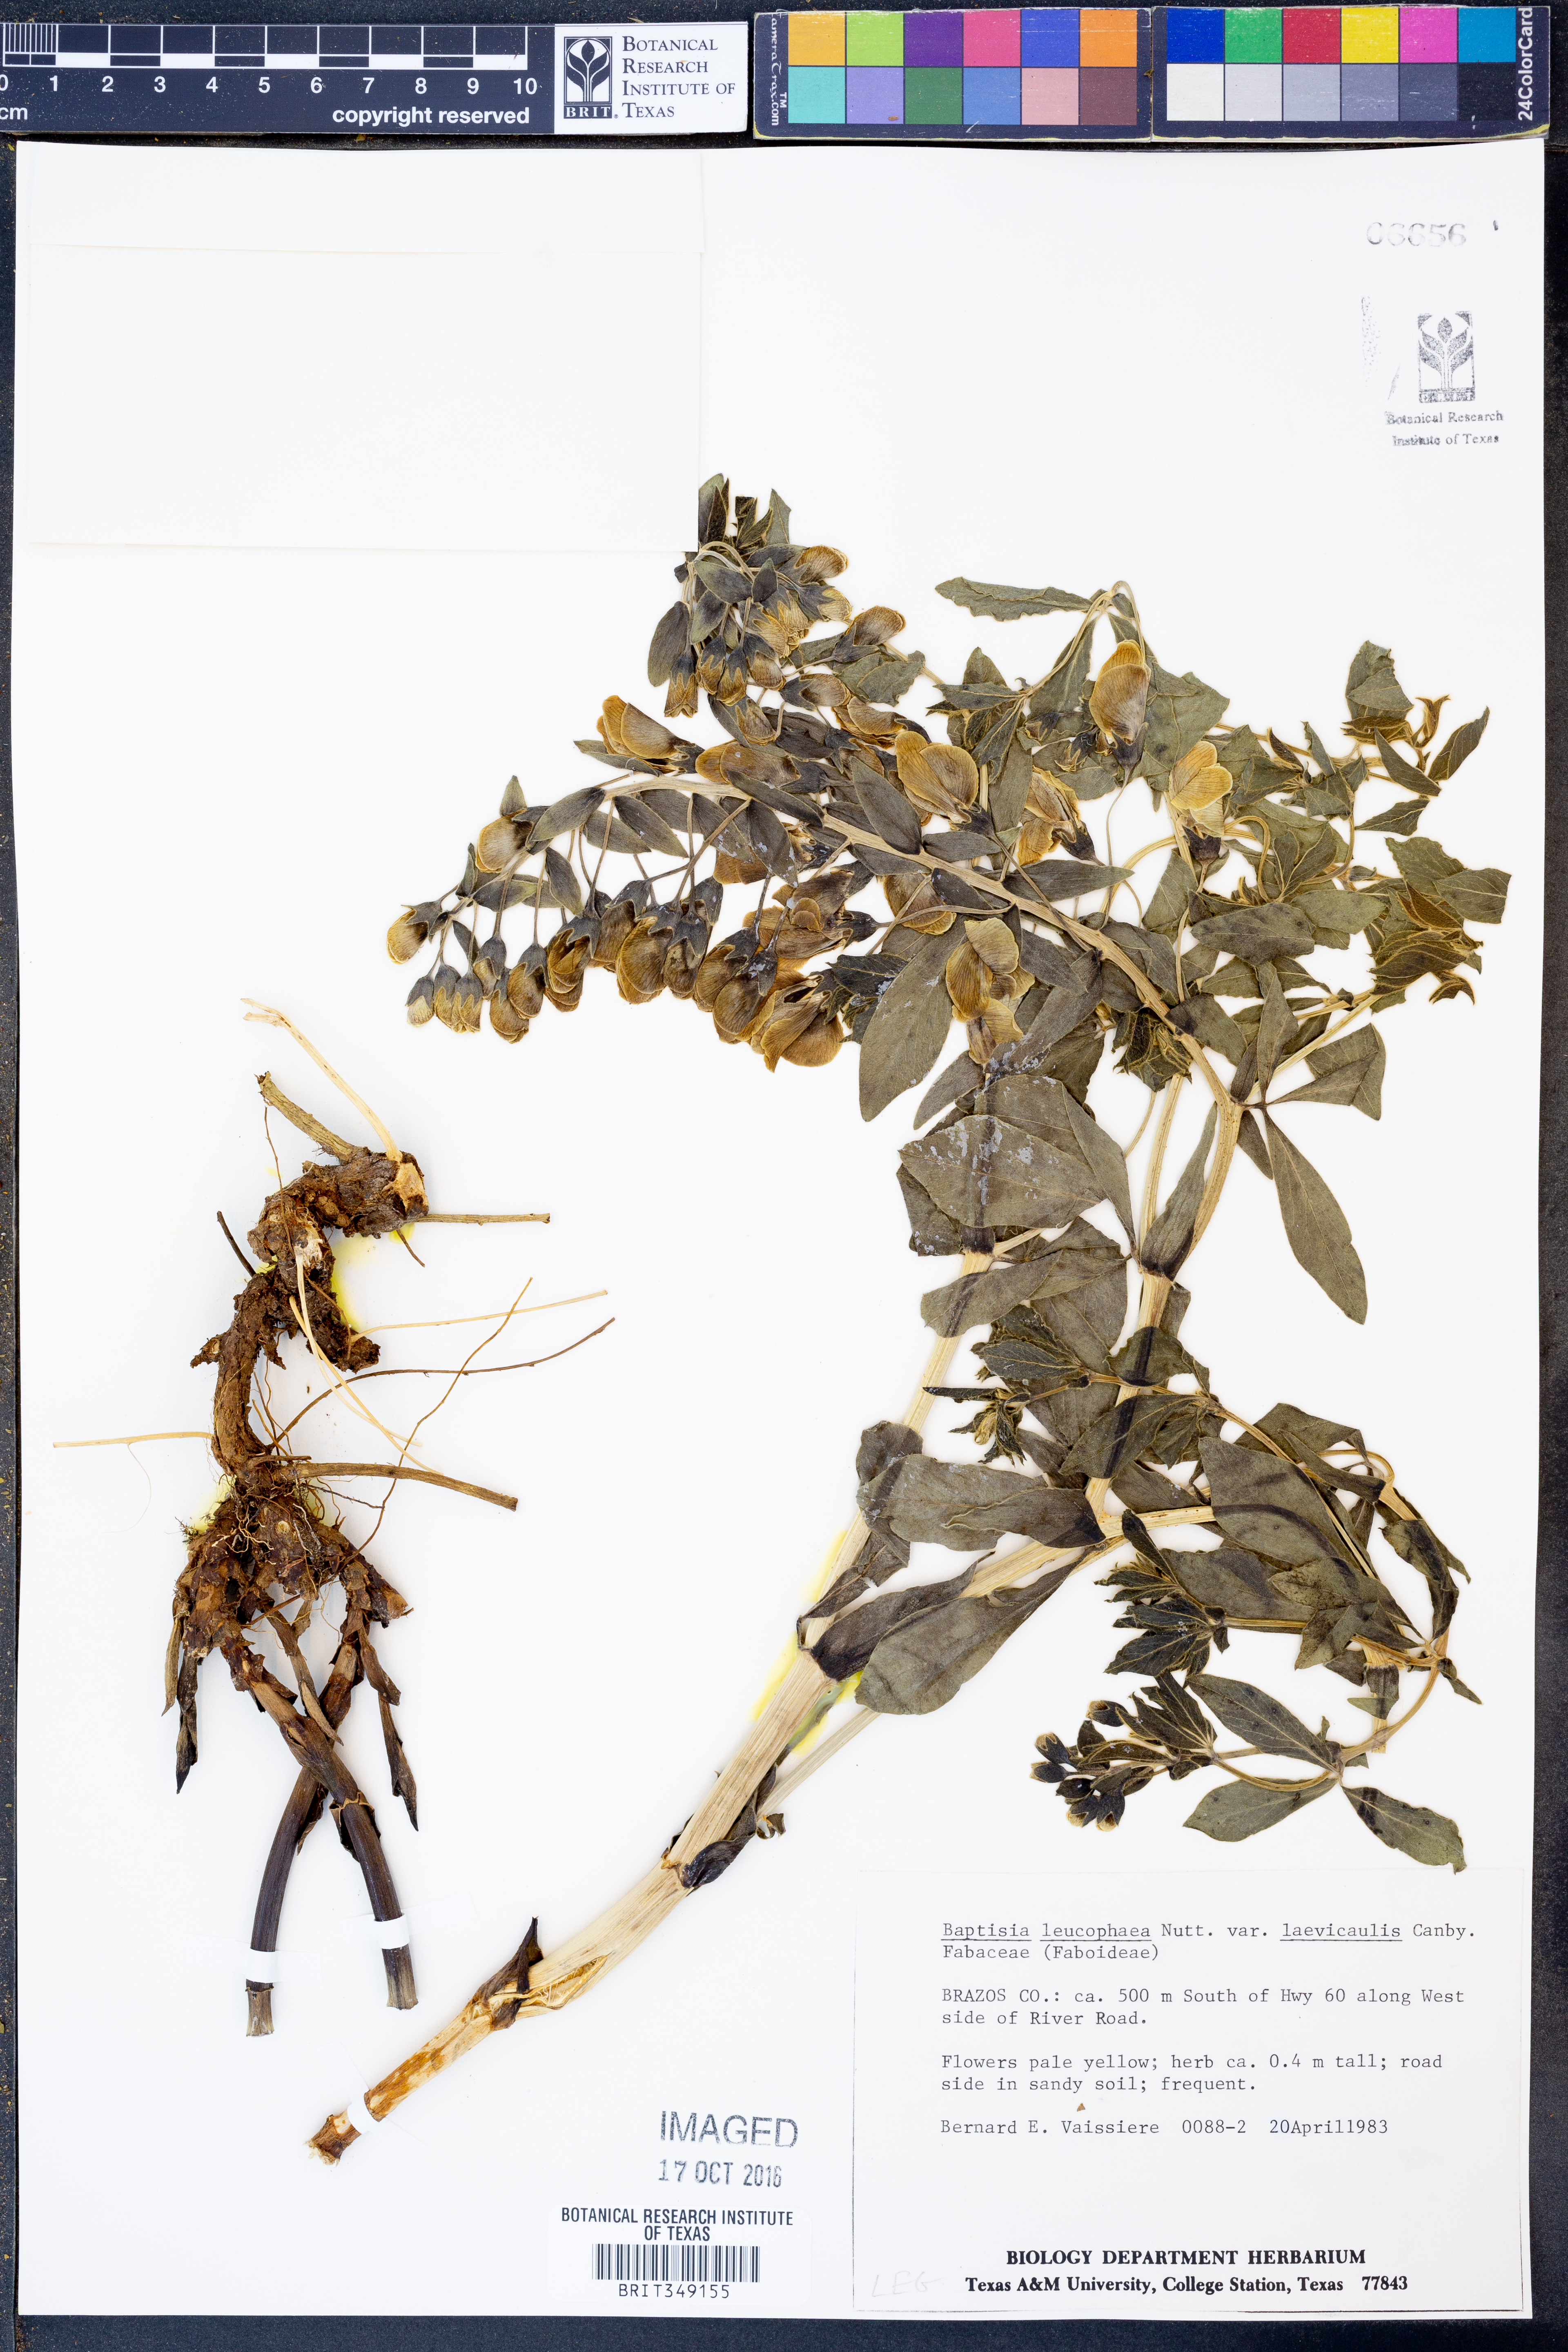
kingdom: Plantae
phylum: Tracheophyta
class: Magnoliopsida
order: Fabales
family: Fabaceae
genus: Baptisia
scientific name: Baptisia bracteata
